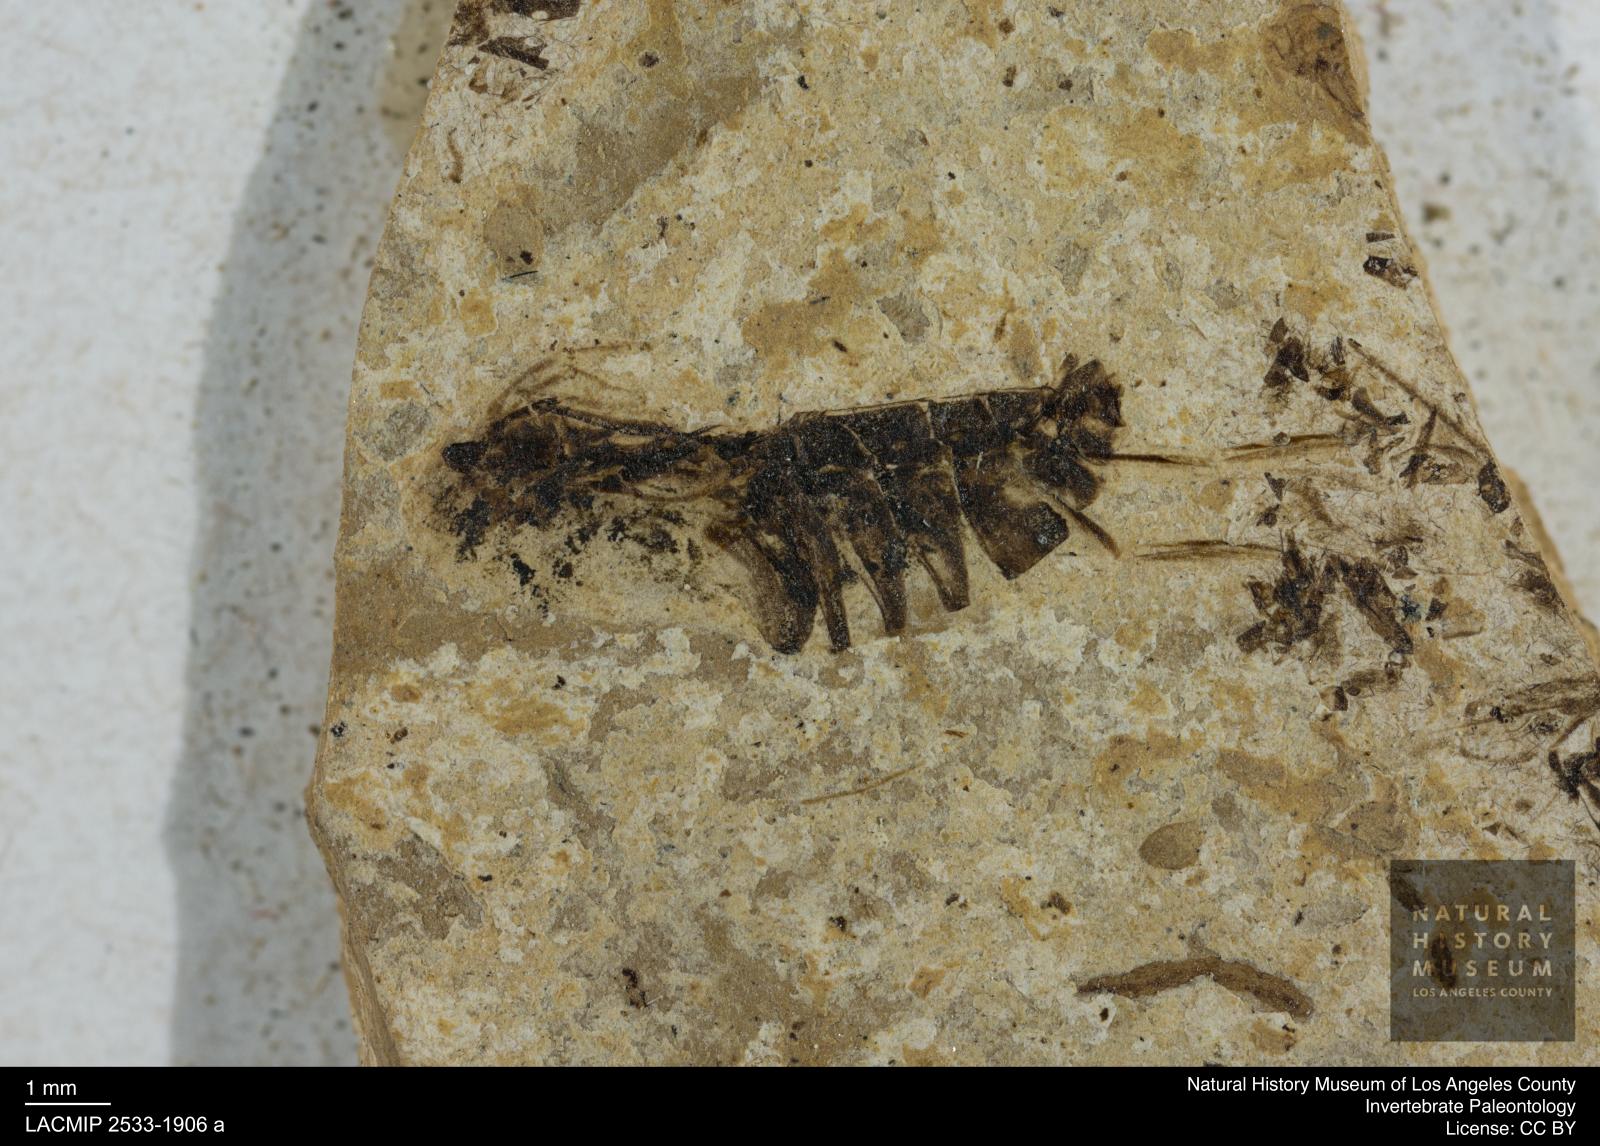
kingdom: Animalia
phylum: Arthropoda
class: Insecta
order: Hemiptera
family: Notonectidae
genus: Anisops
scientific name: Anisops Notonecta deichmuelleri
